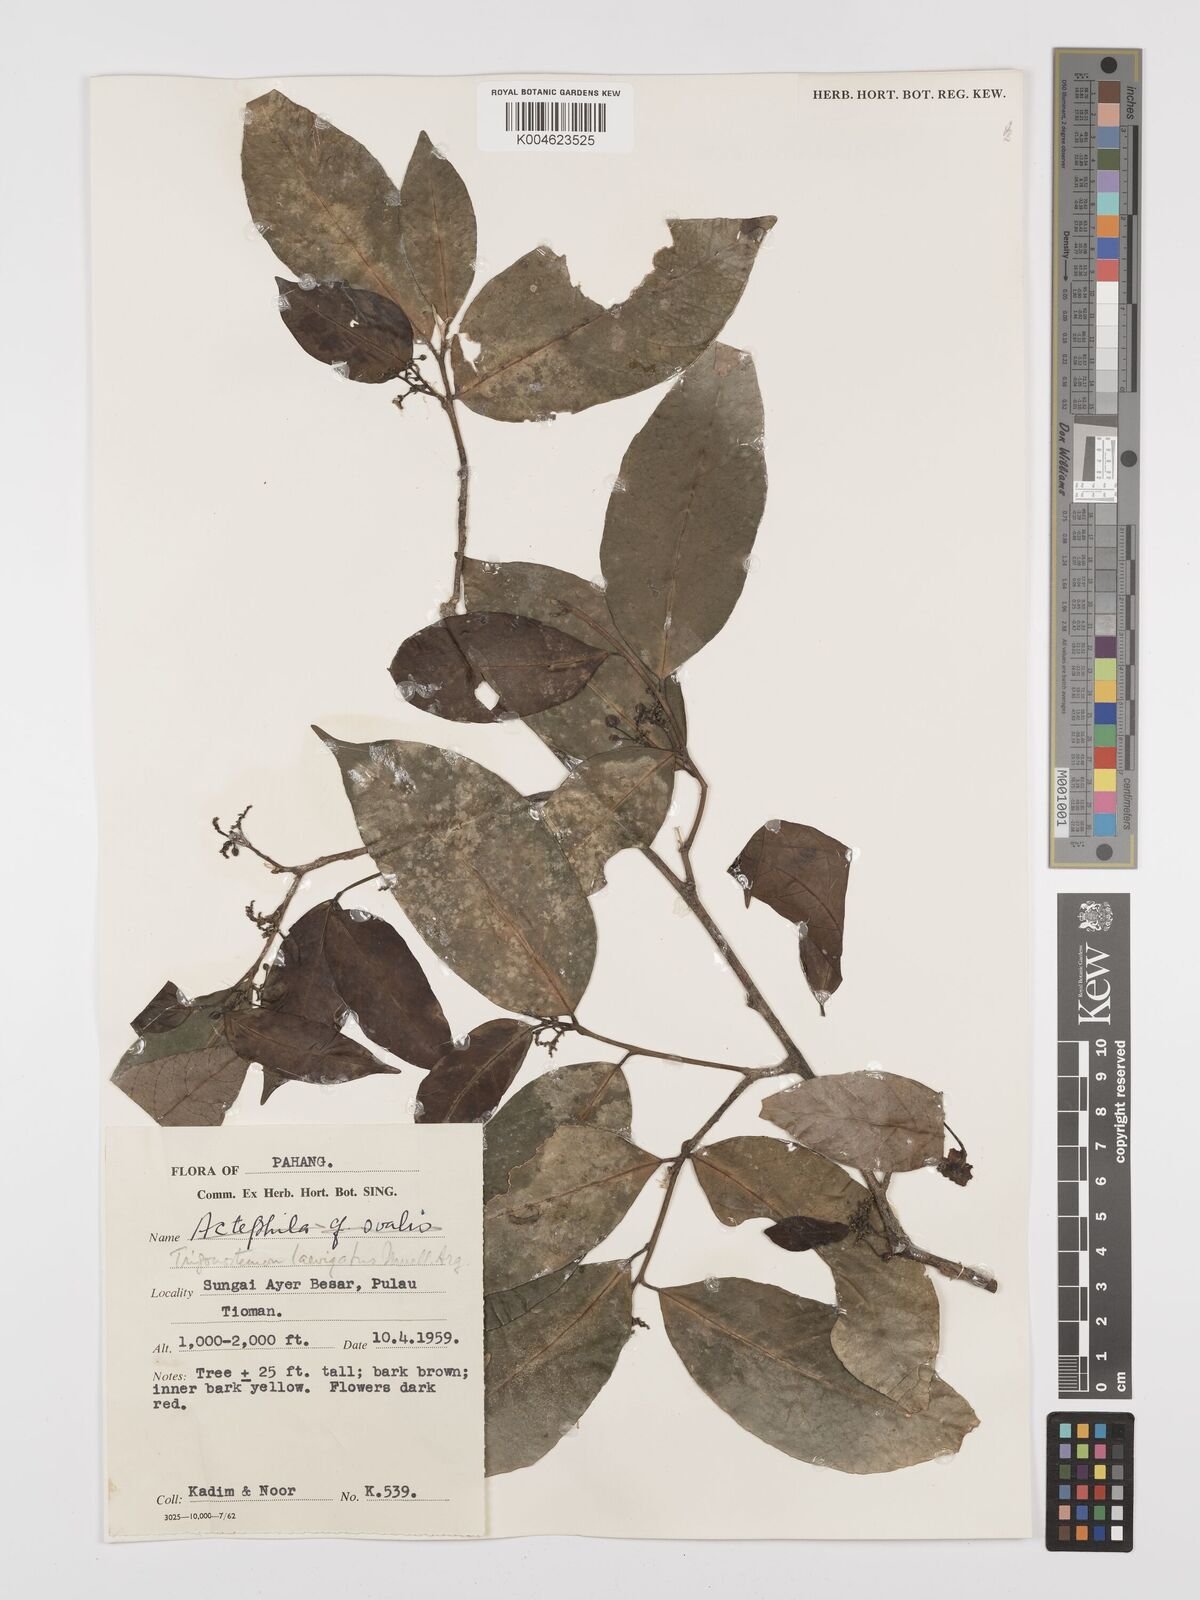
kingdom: Plantae
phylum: Tracheophyta
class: Magnoliopsida
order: Malpighiales
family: Euphorbiaceae
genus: Trigonostemon
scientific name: Trigonostemon laevigatus
